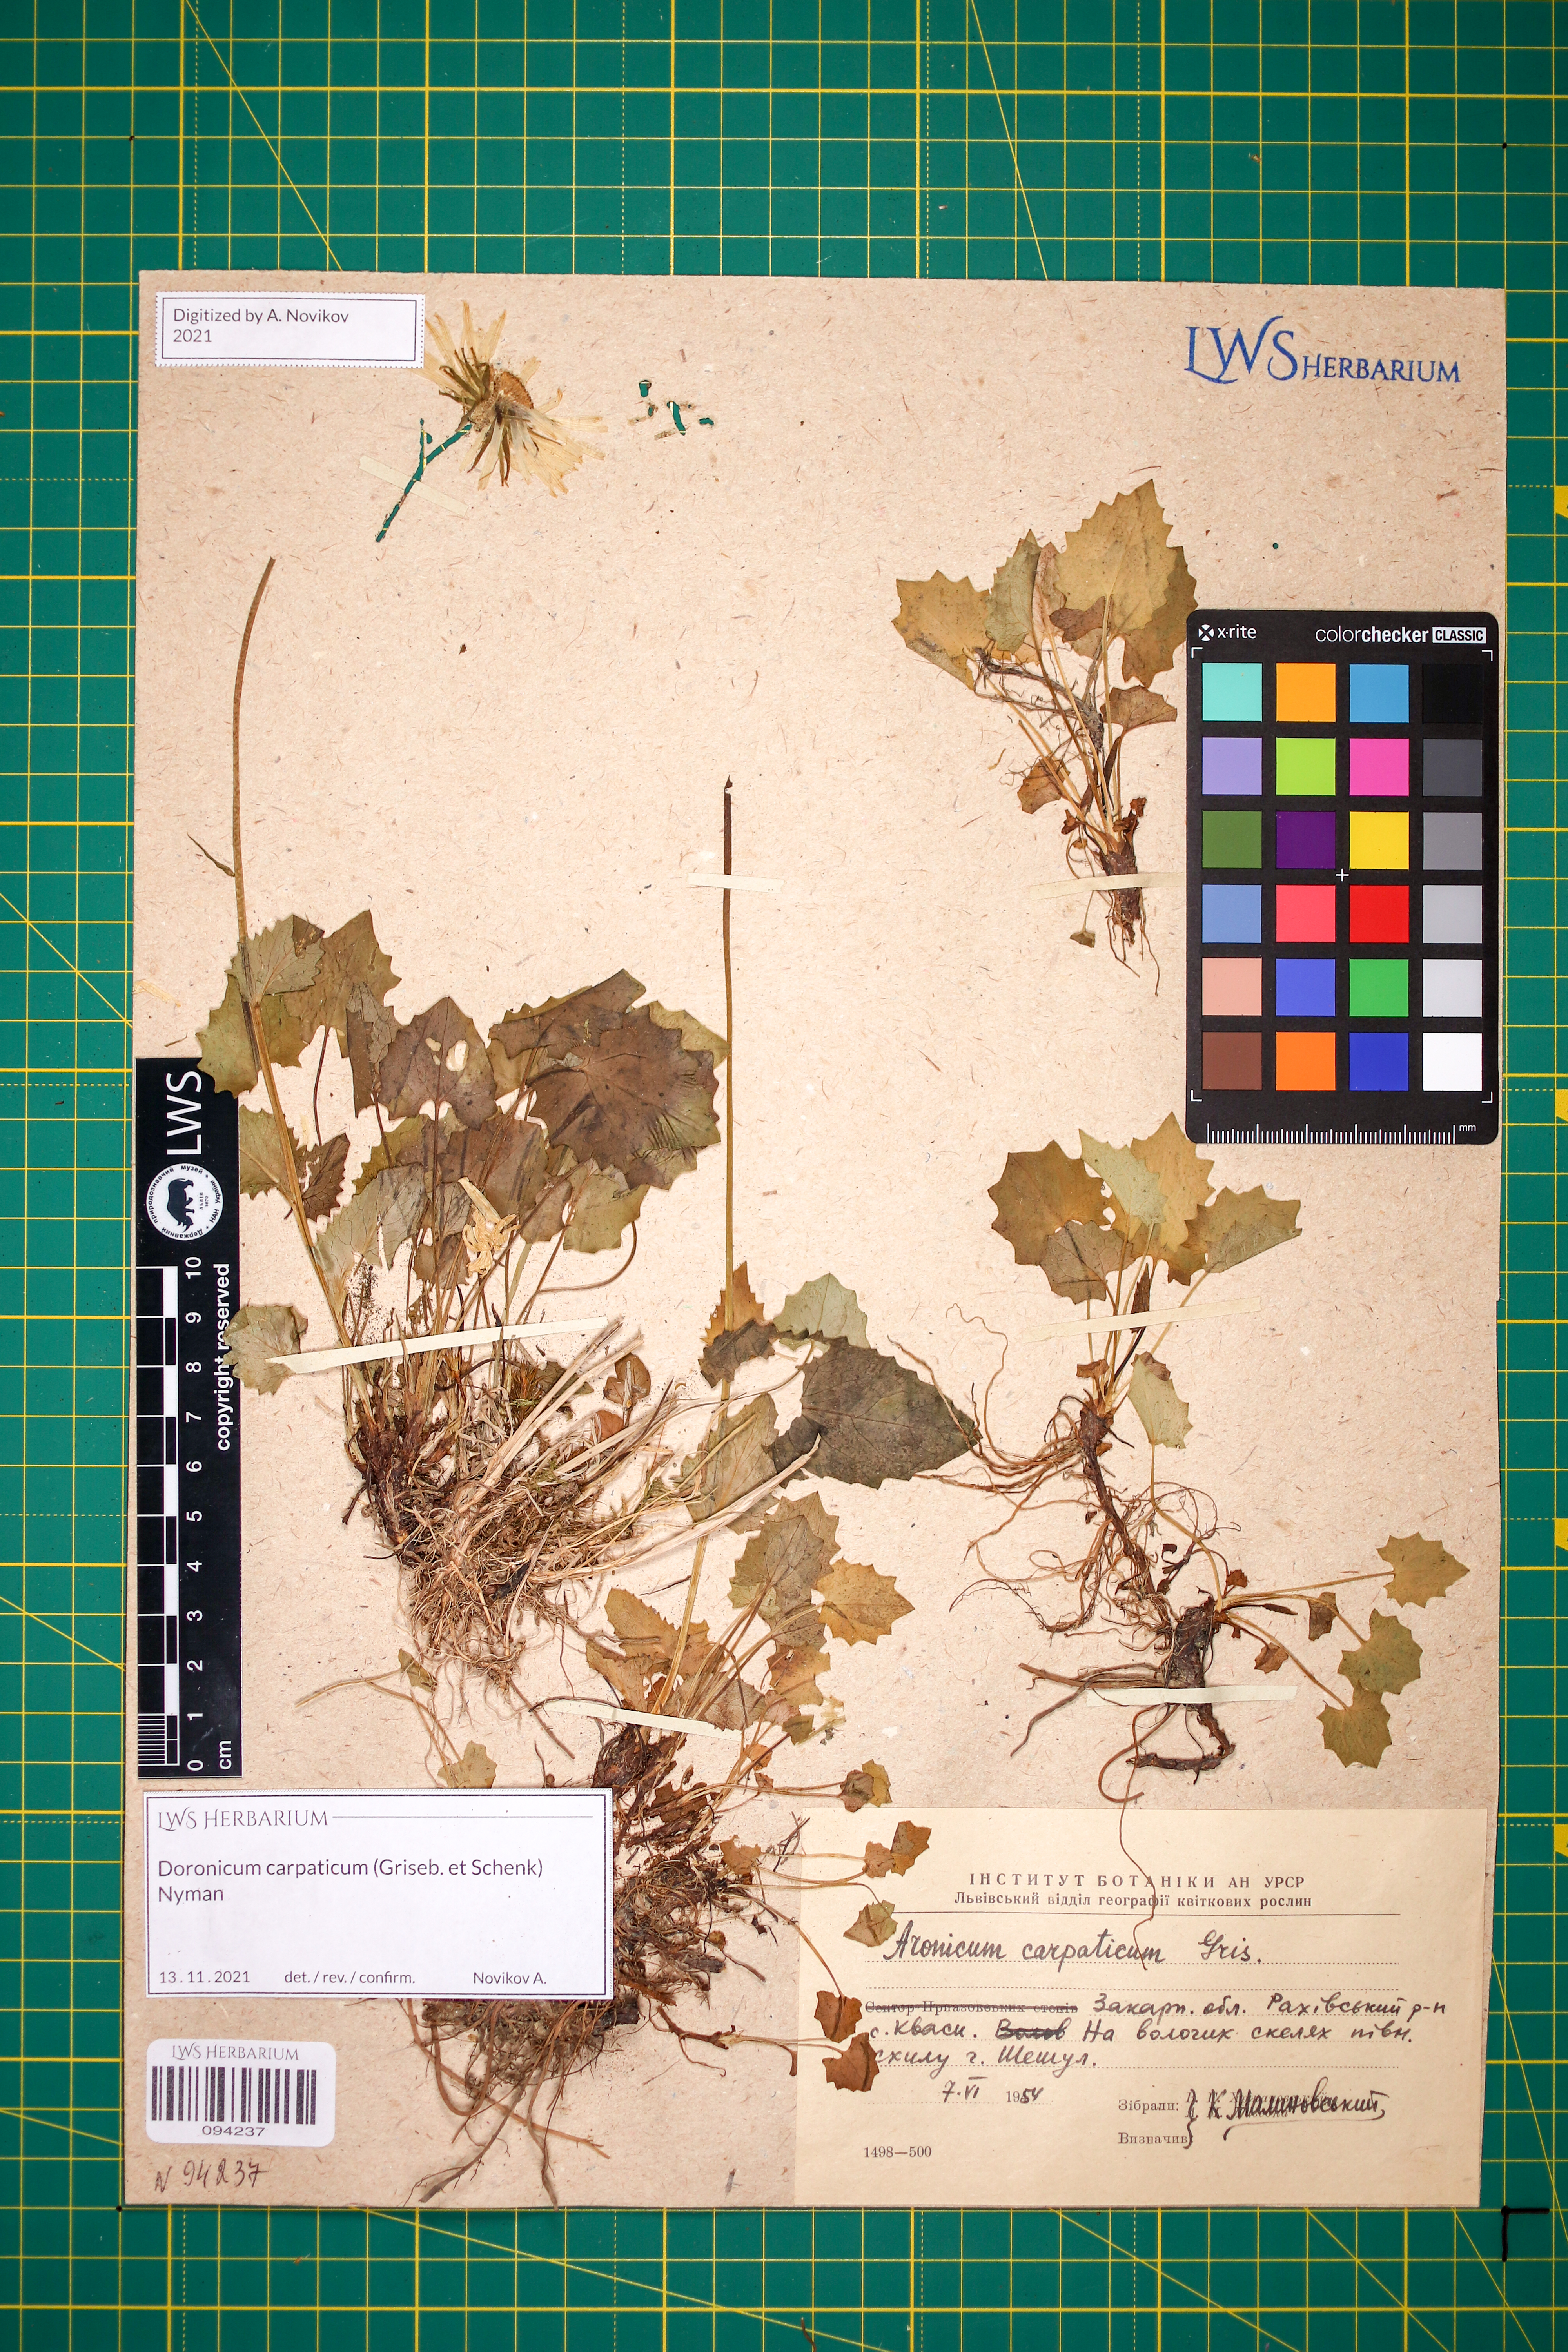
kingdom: Plantae
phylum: Tracheophyta
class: Magnoliopsida
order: Asterales
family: Asteraceae
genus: Doronicum
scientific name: Doronicum carpaticum
